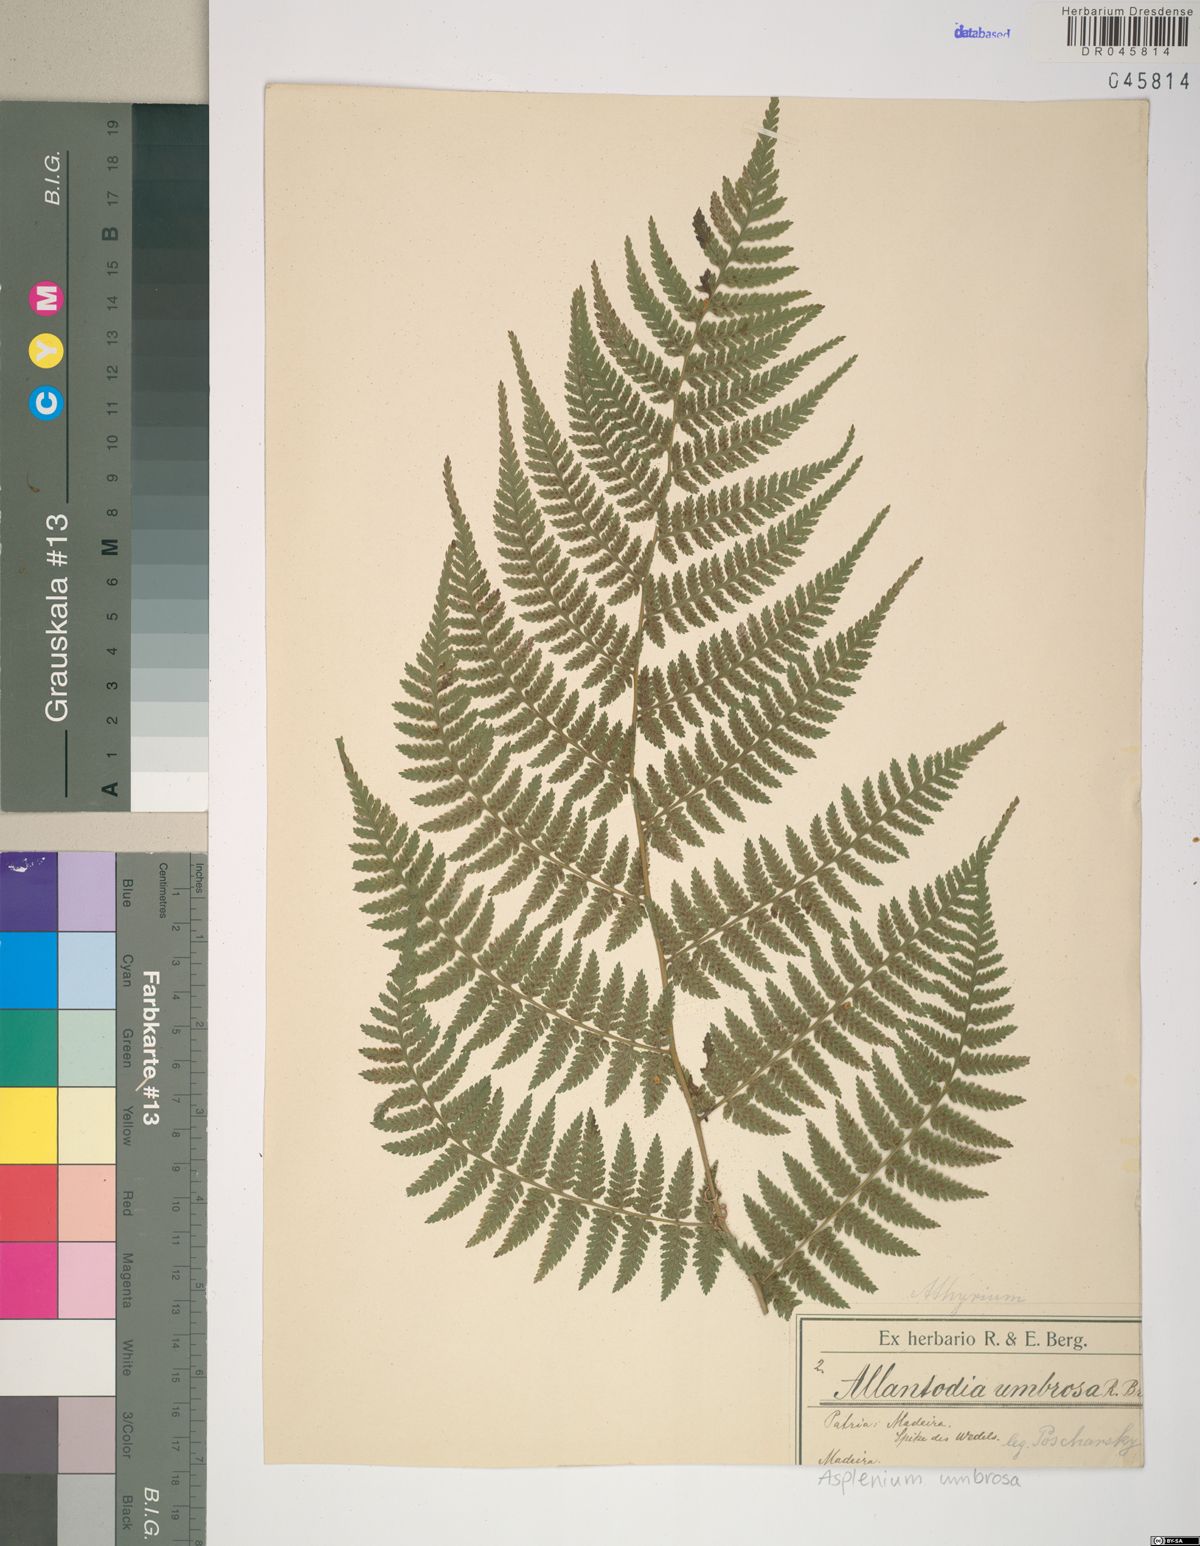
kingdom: Plantae
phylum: Tracheophyta
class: Polypodiopsida
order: Polypodiales
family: Athyriaceae
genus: Diplazium
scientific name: Diplazium caudatum
